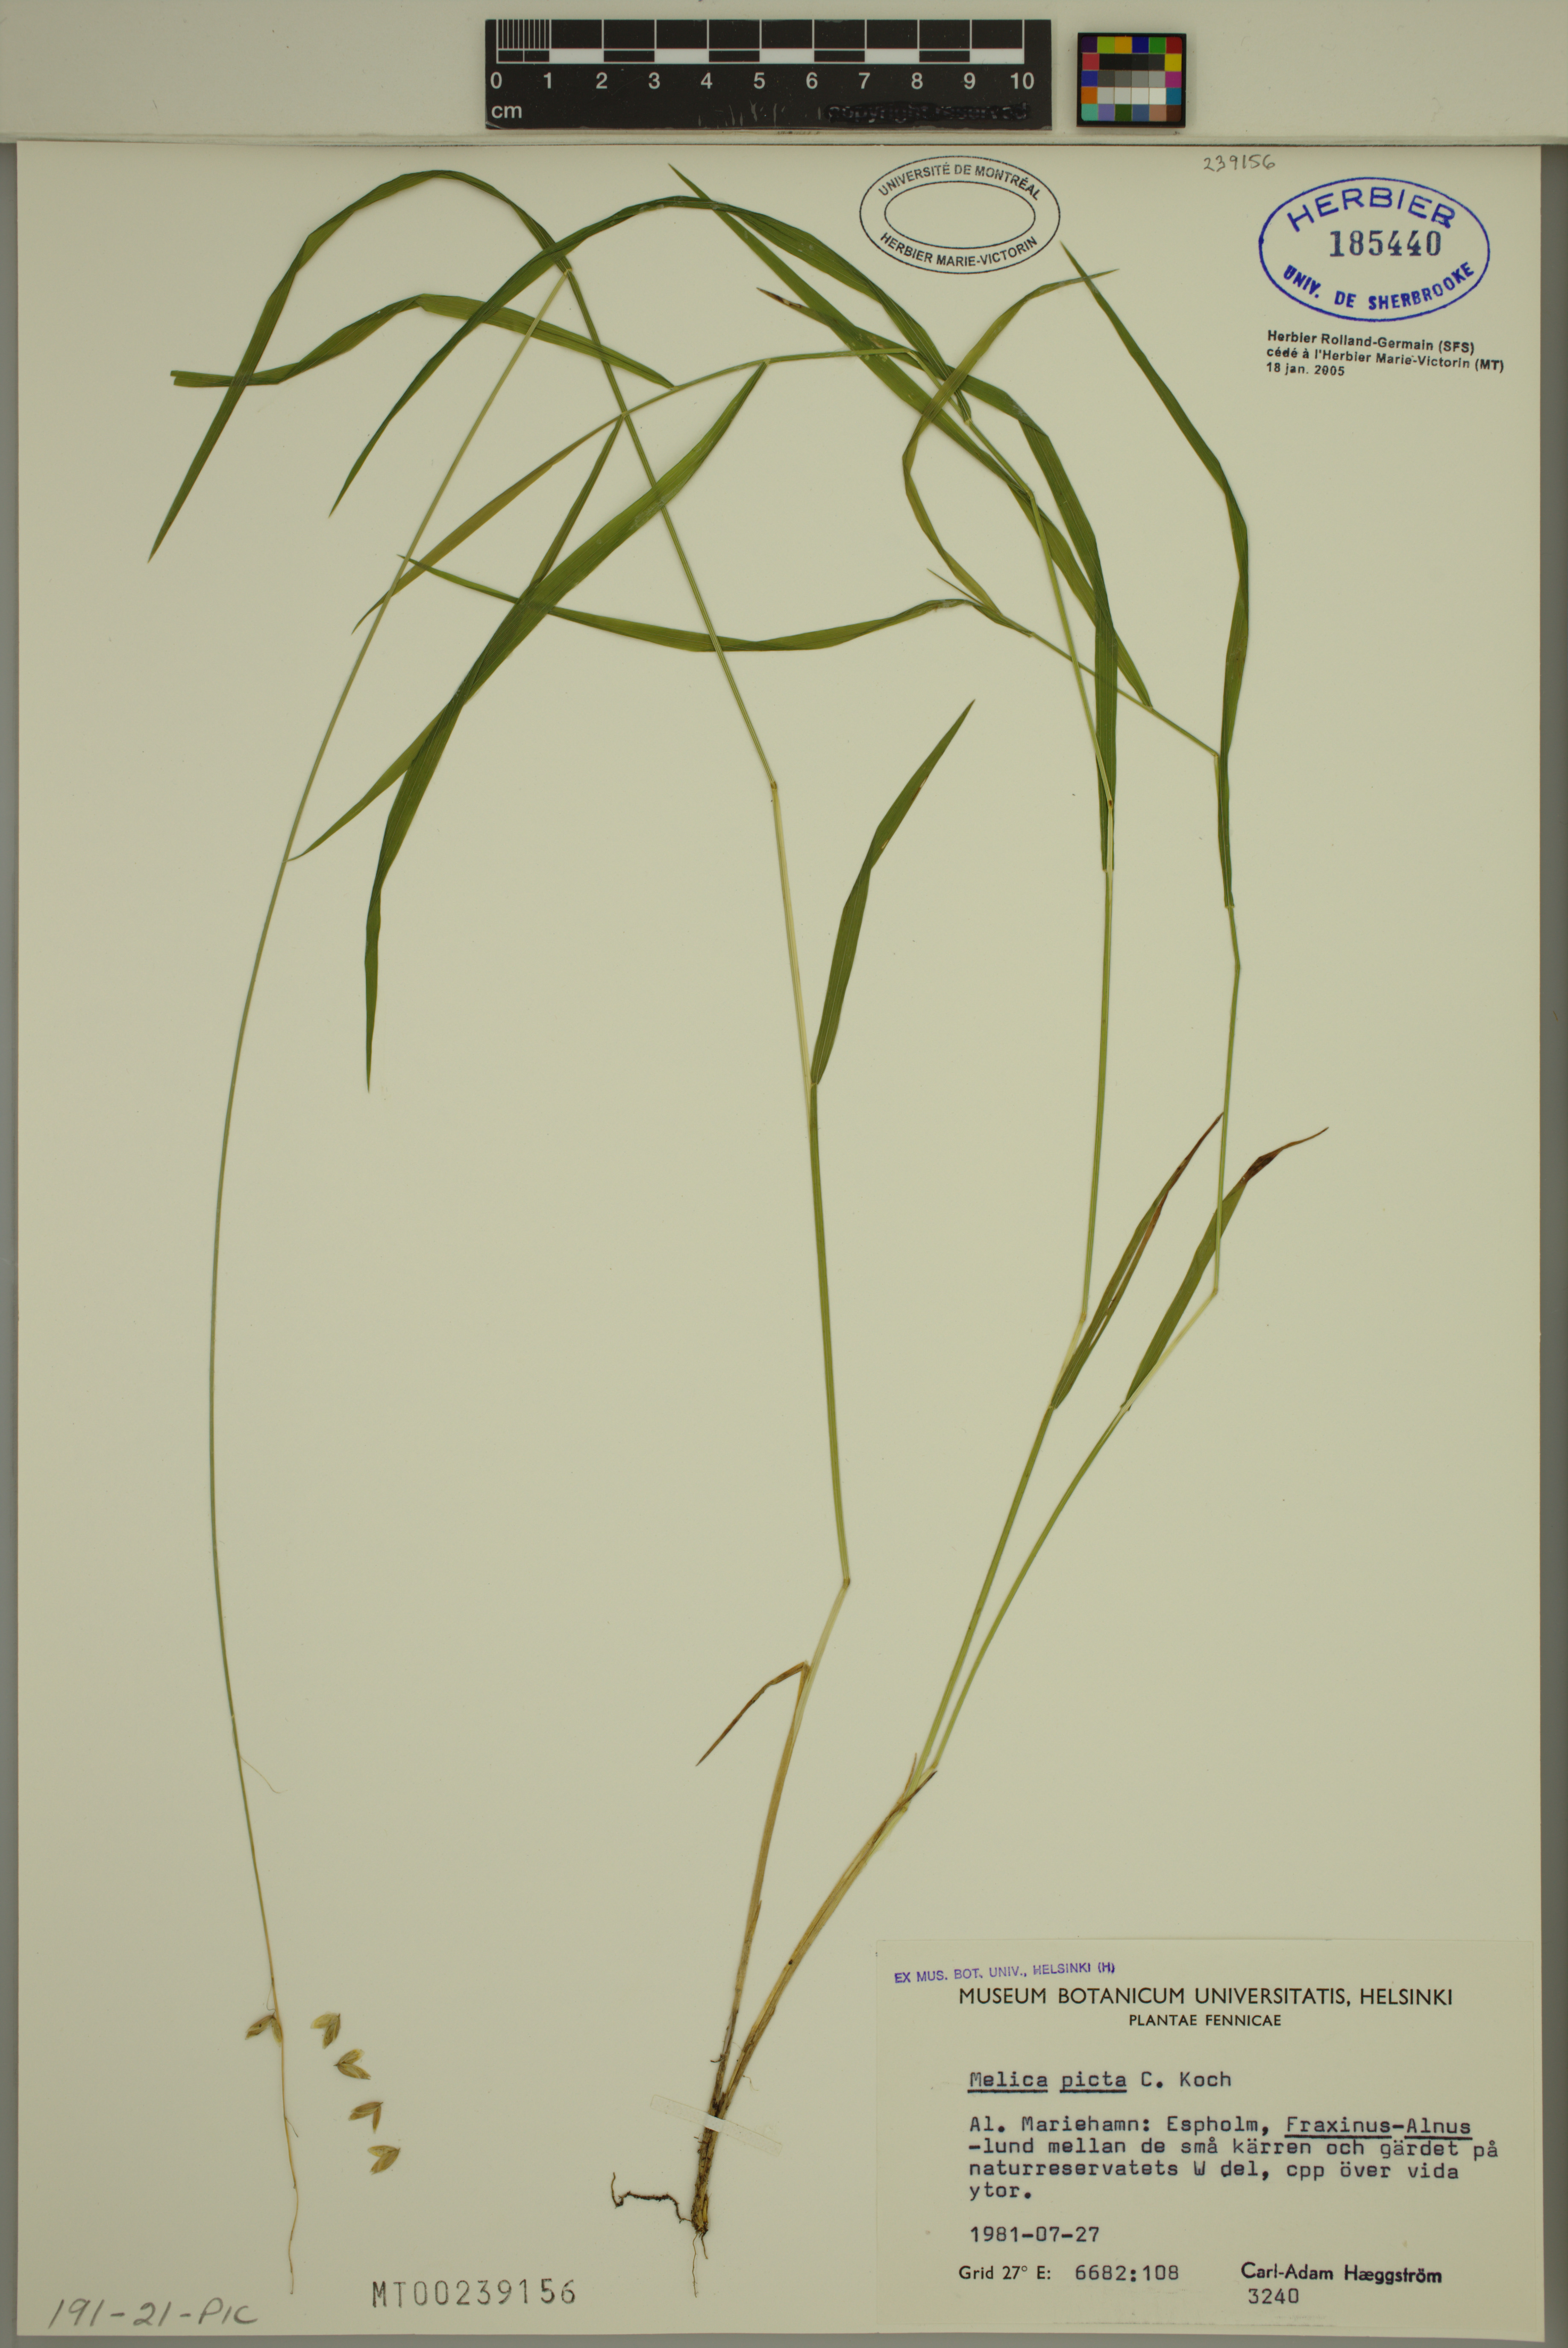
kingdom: Plantae
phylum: Tracheophyta
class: Liliopsida
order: Poales
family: Poaceae
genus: Melica
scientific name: Melica picta
